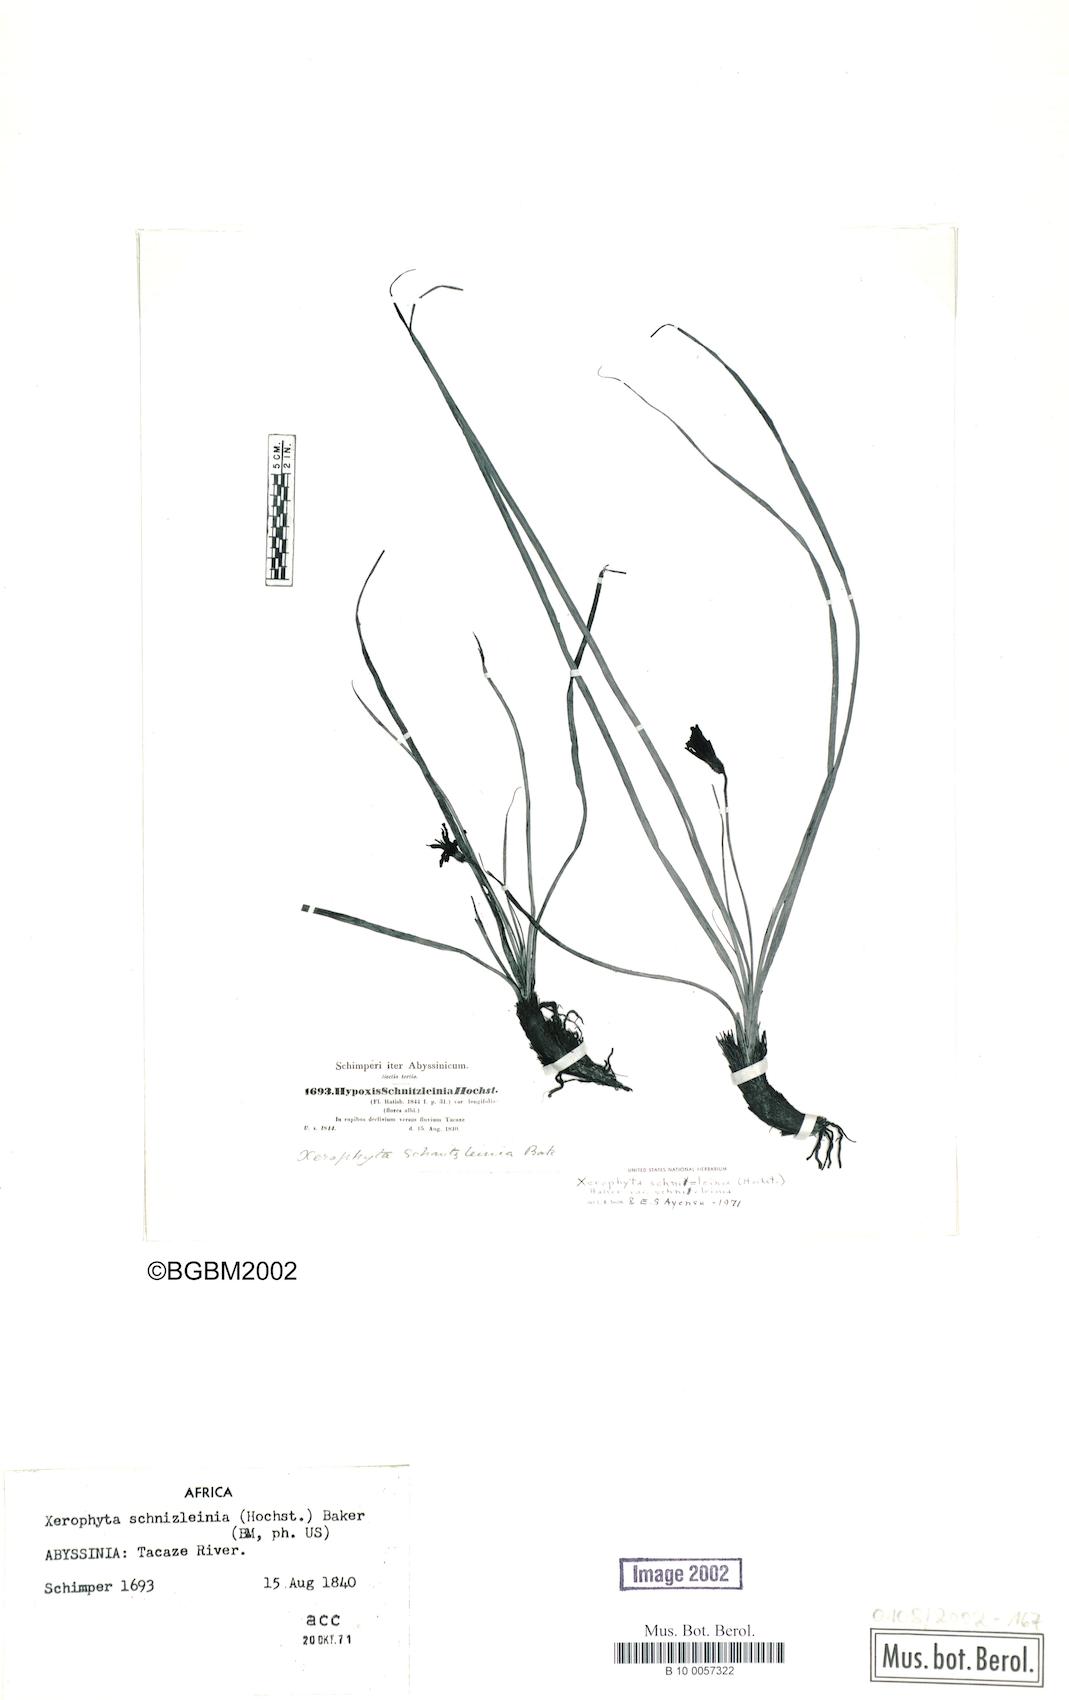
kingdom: Plantae
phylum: Tracheophyta
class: Liliopsida
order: Pandanales
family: Velloziaceae
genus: Xerophyta
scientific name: Xerophyta schnizleinia
